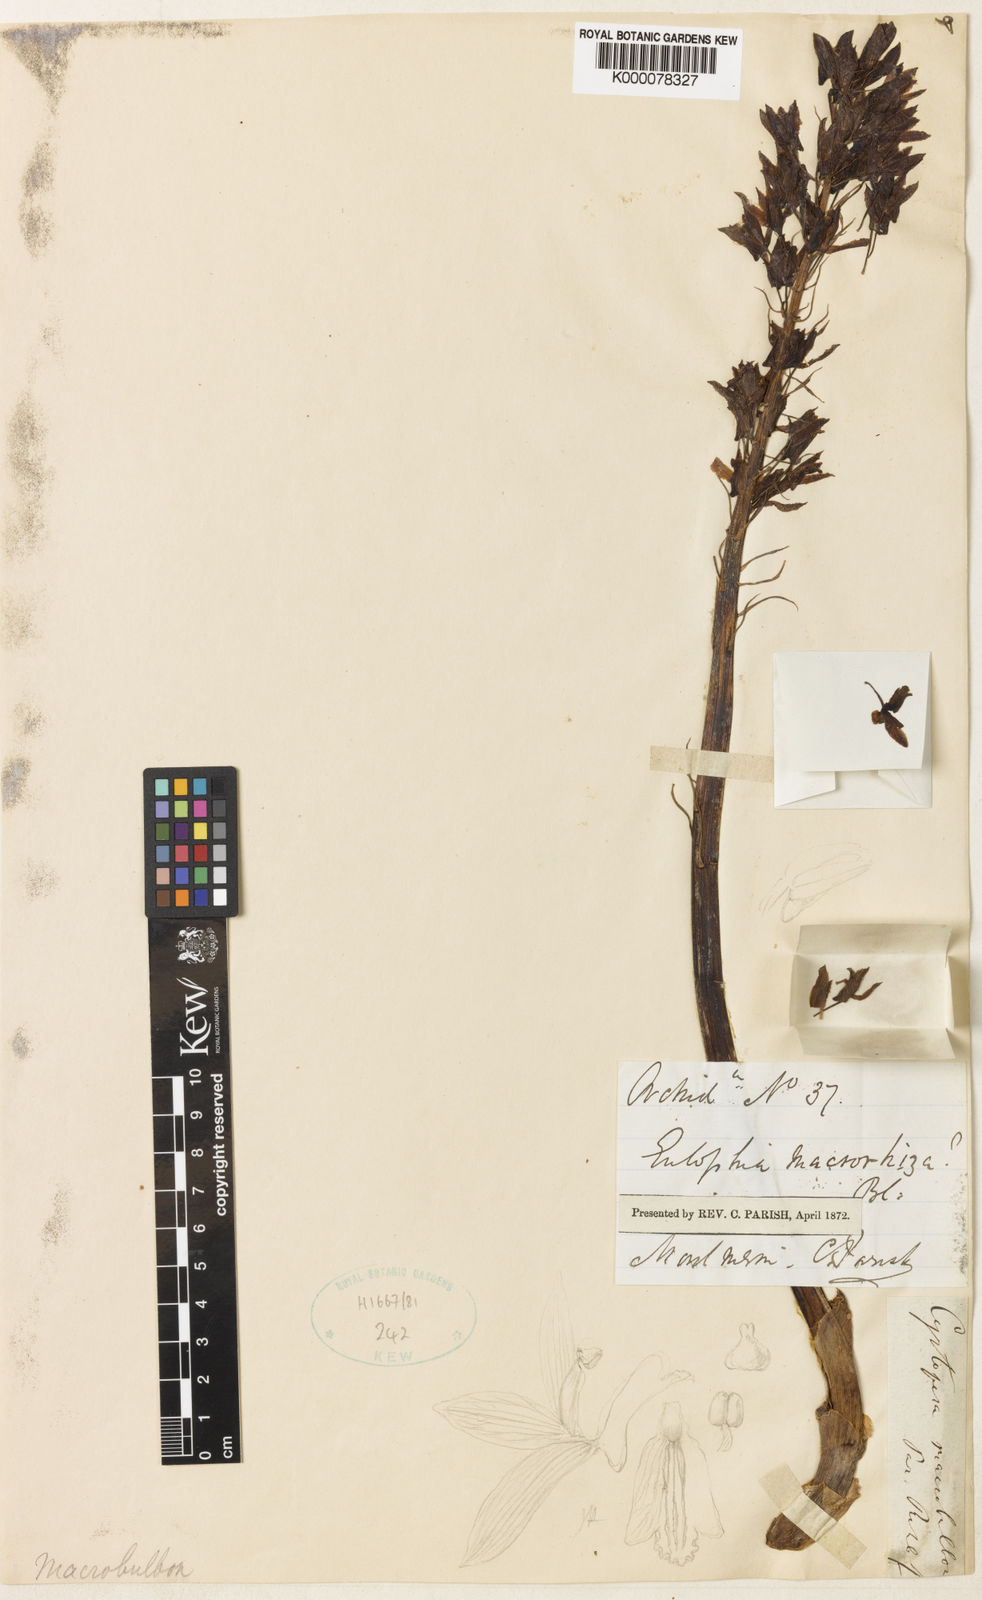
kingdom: Plantae
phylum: Tracheophyta
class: Liliopsida
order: Asparagales
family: Orchidaceae
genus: Eulophia
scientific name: Eulophia macrobulbon
